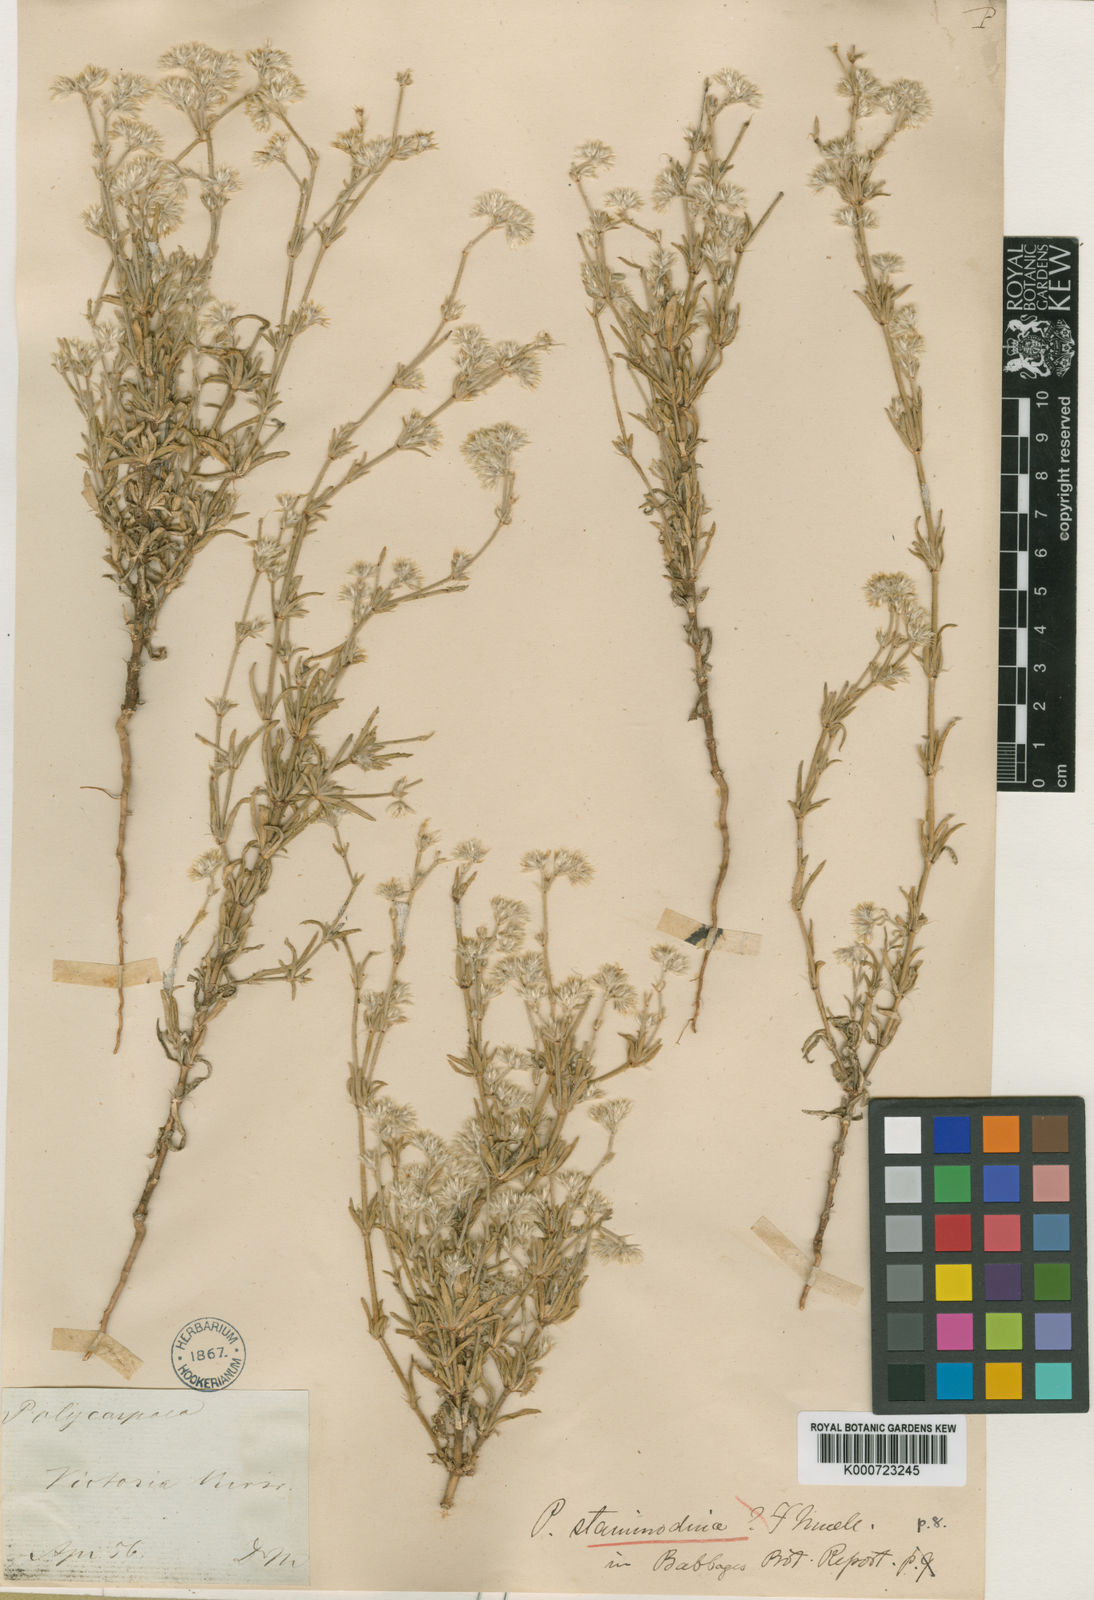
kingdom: Plantae
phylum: Tracheophyta
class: Magnoliopsida
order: Caryophyllales
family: Caryophyllaceae
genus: Polycarpaea
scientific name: Polycarpaea staminodina
